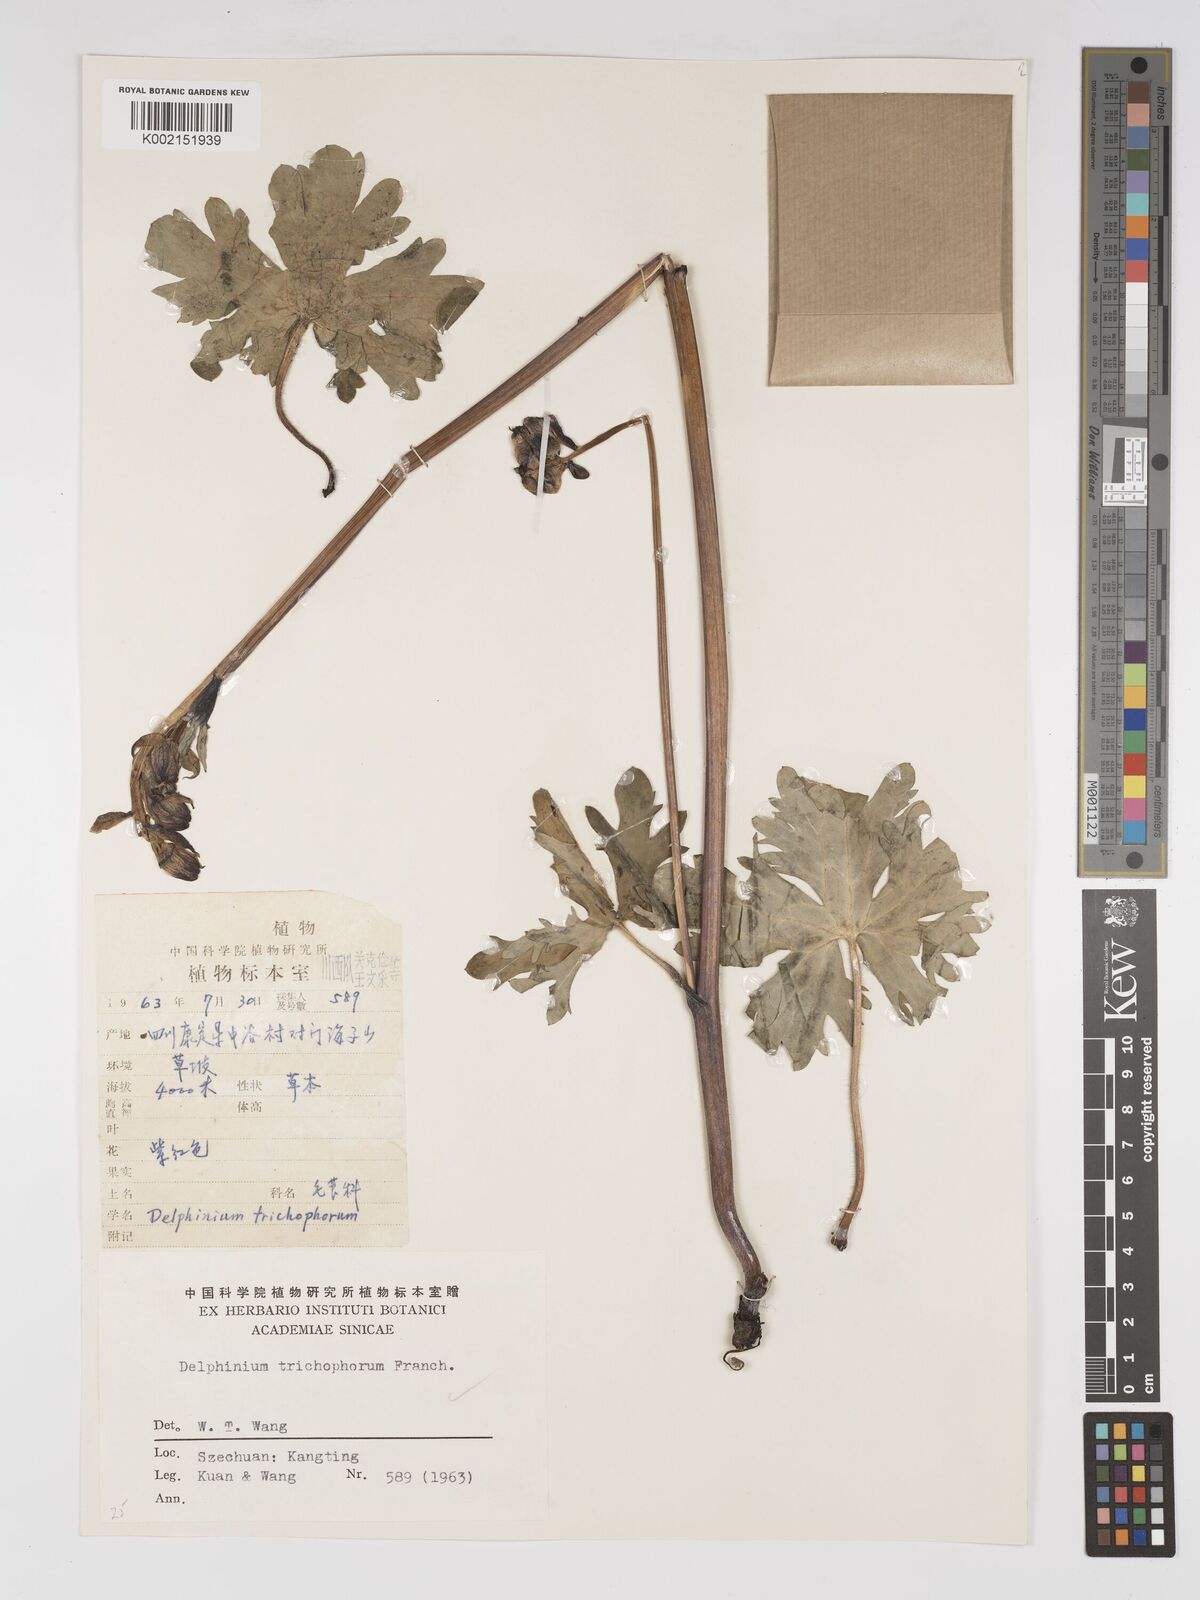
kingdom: Plantae
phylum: Tracheophyta
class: Magnoliopsida
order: Ranunculales
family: Ranunculaceae
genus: Delphinium
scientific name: Delphinium trichophorum
